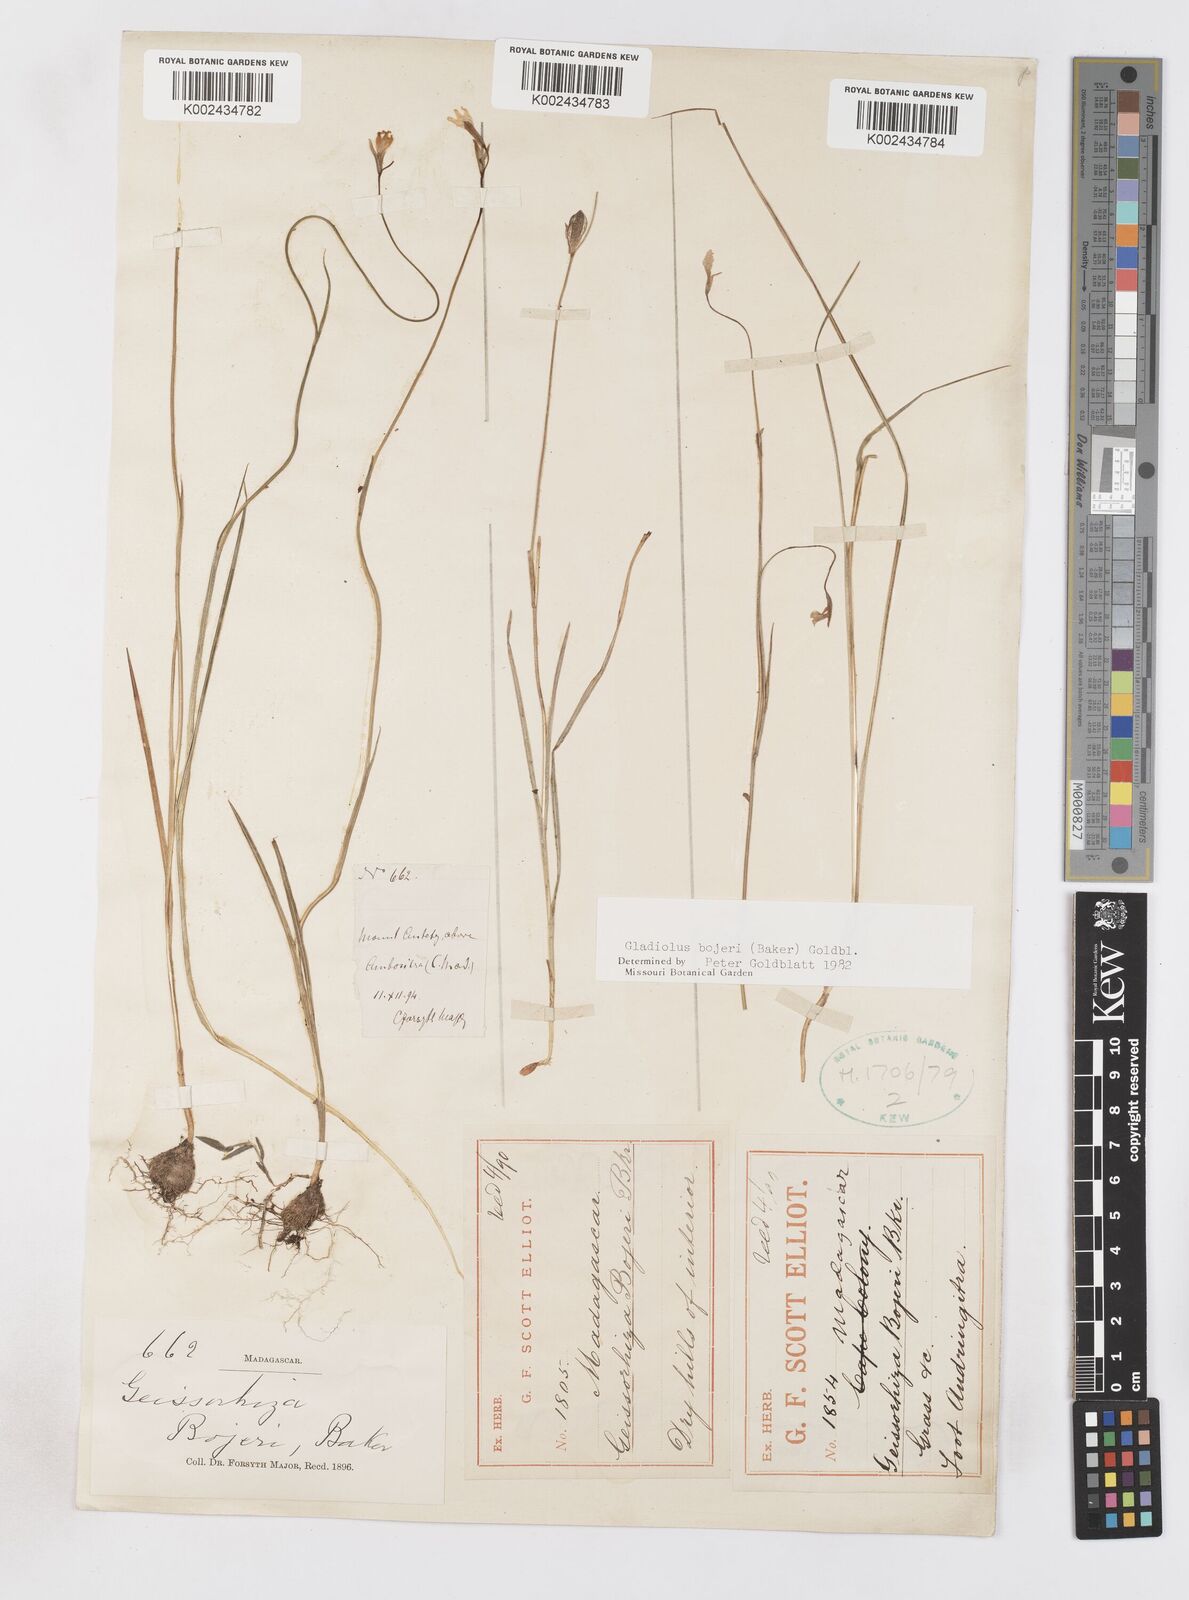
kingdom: Plantae
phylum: Tracheophyta
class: Liliopsida
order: Asparagales
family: Iridaceae
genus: Gladiolus
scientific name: Gladiolus bojeri
